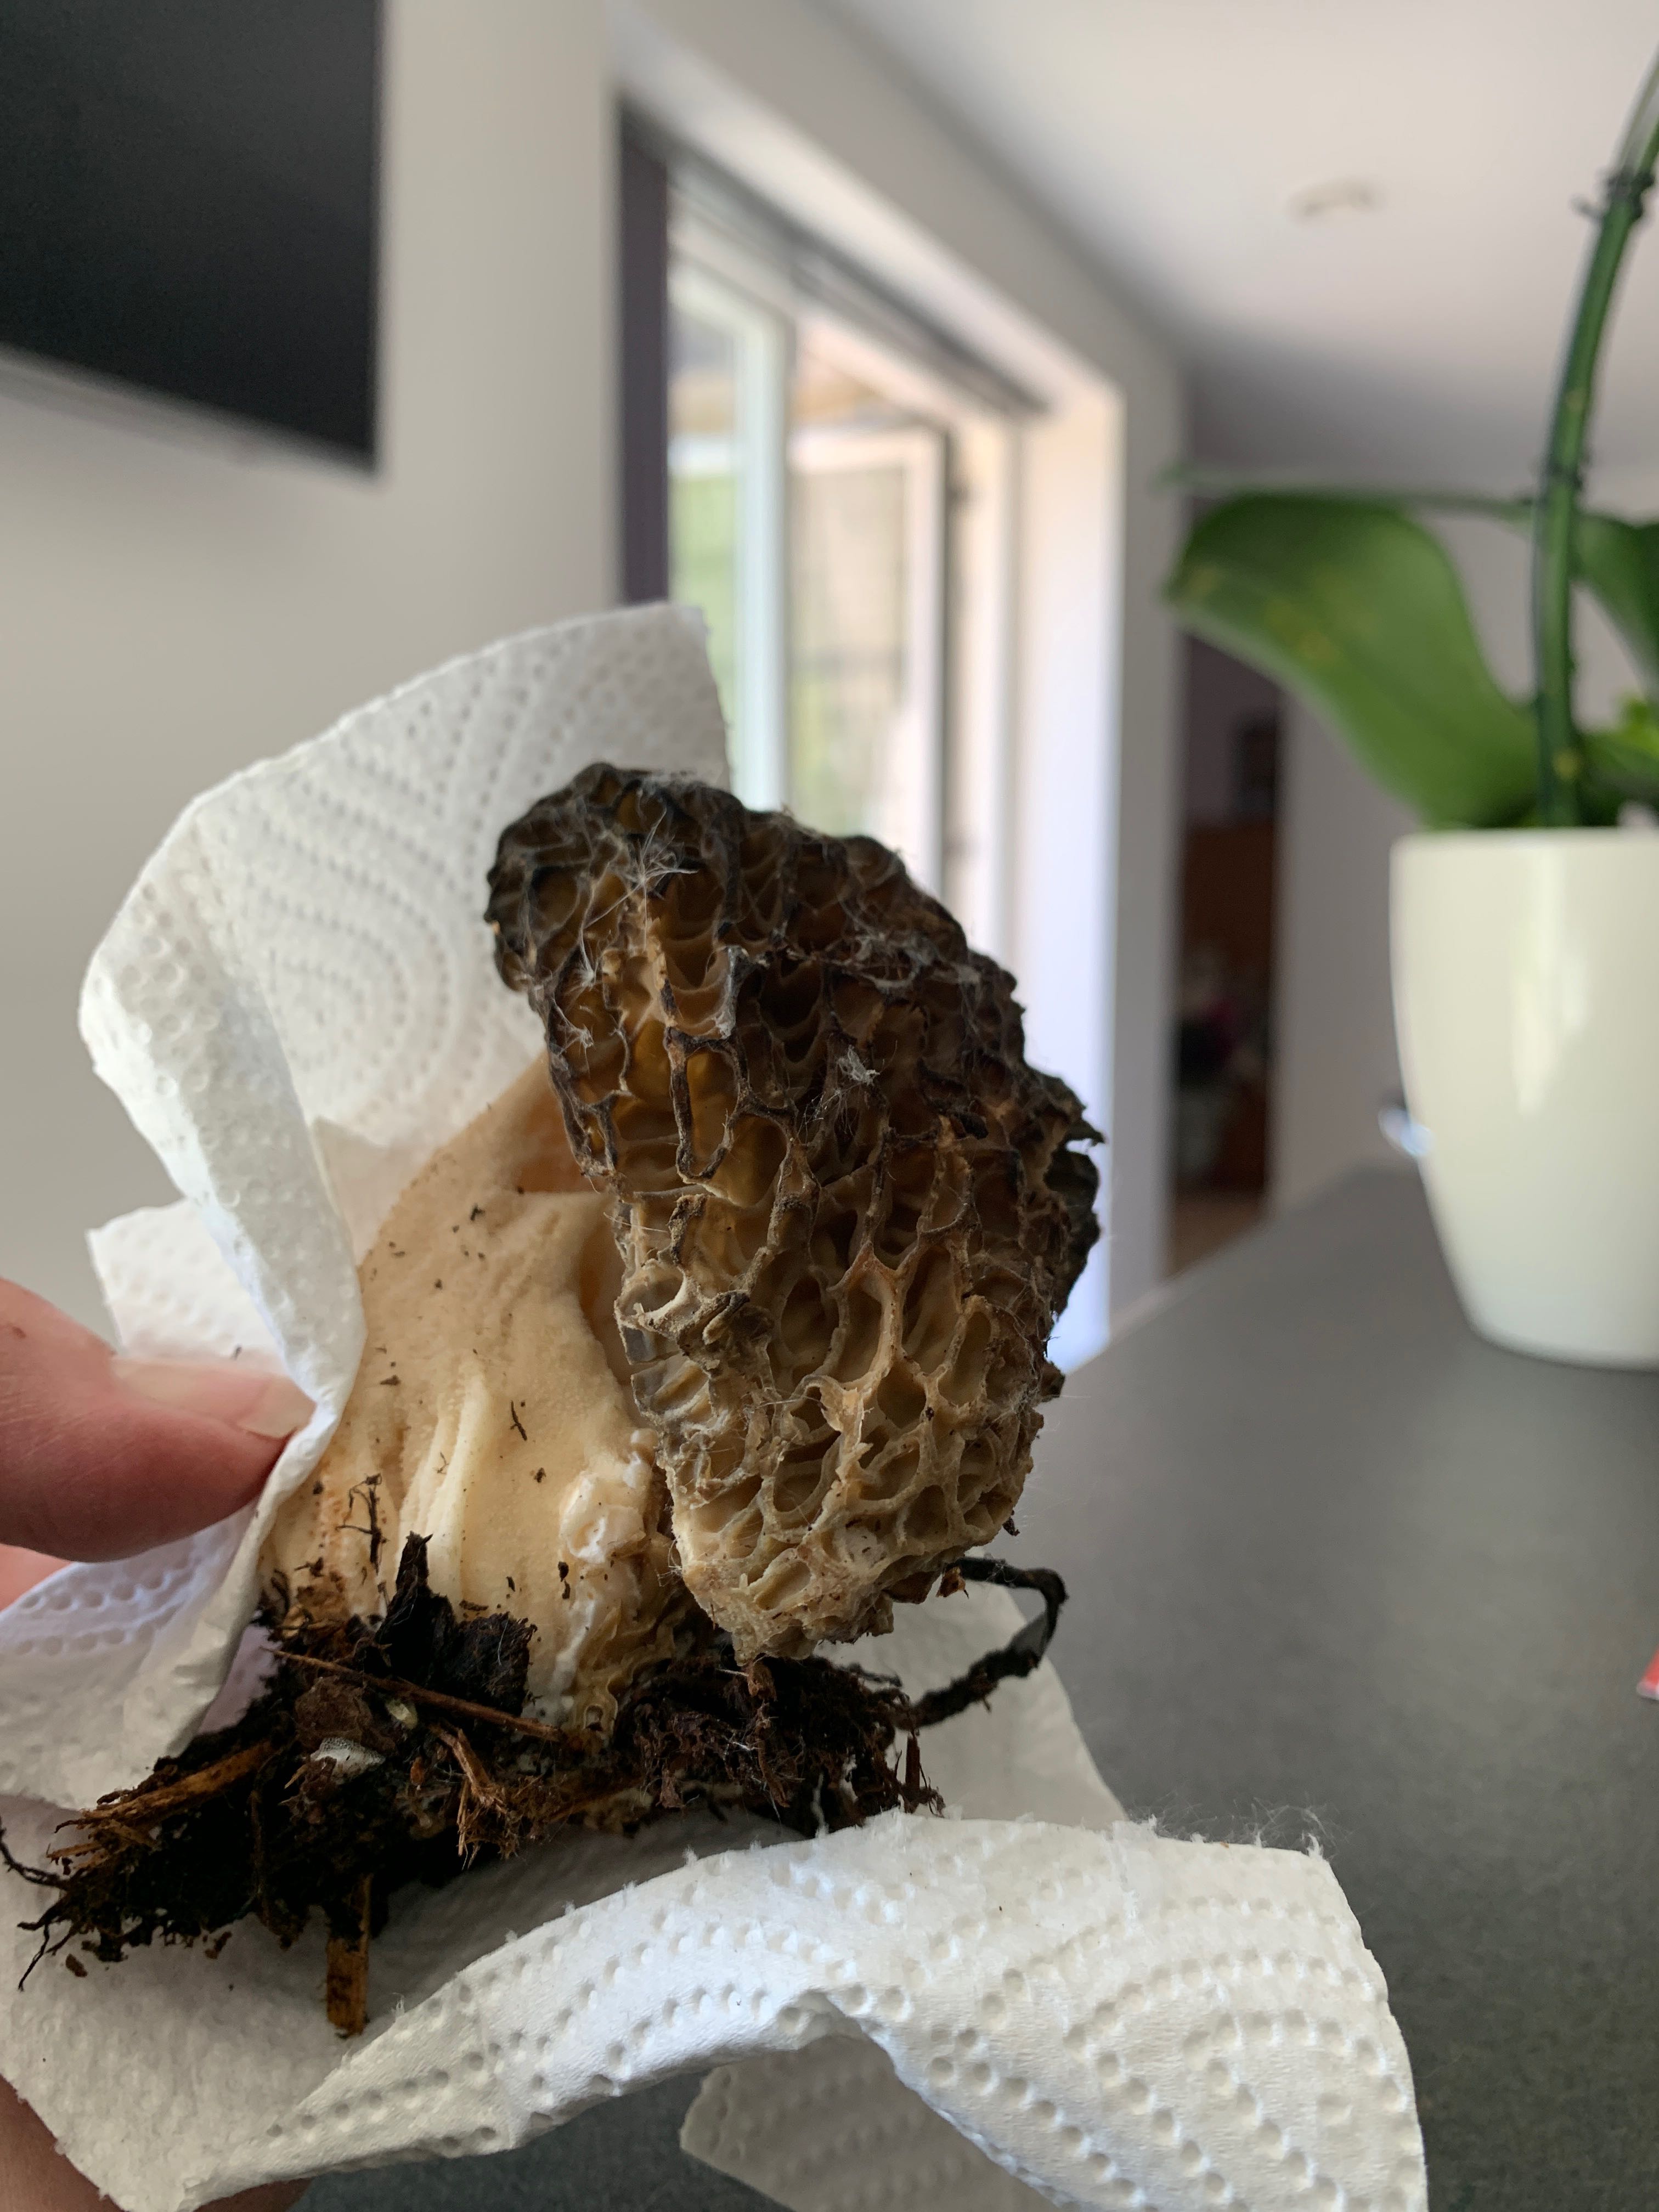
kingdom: Fungi
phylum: Ascomycota
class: Pezizomycetes
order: Pezizales
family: Morchellaceae
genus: Morchella
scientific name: Morchella
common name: morkel
